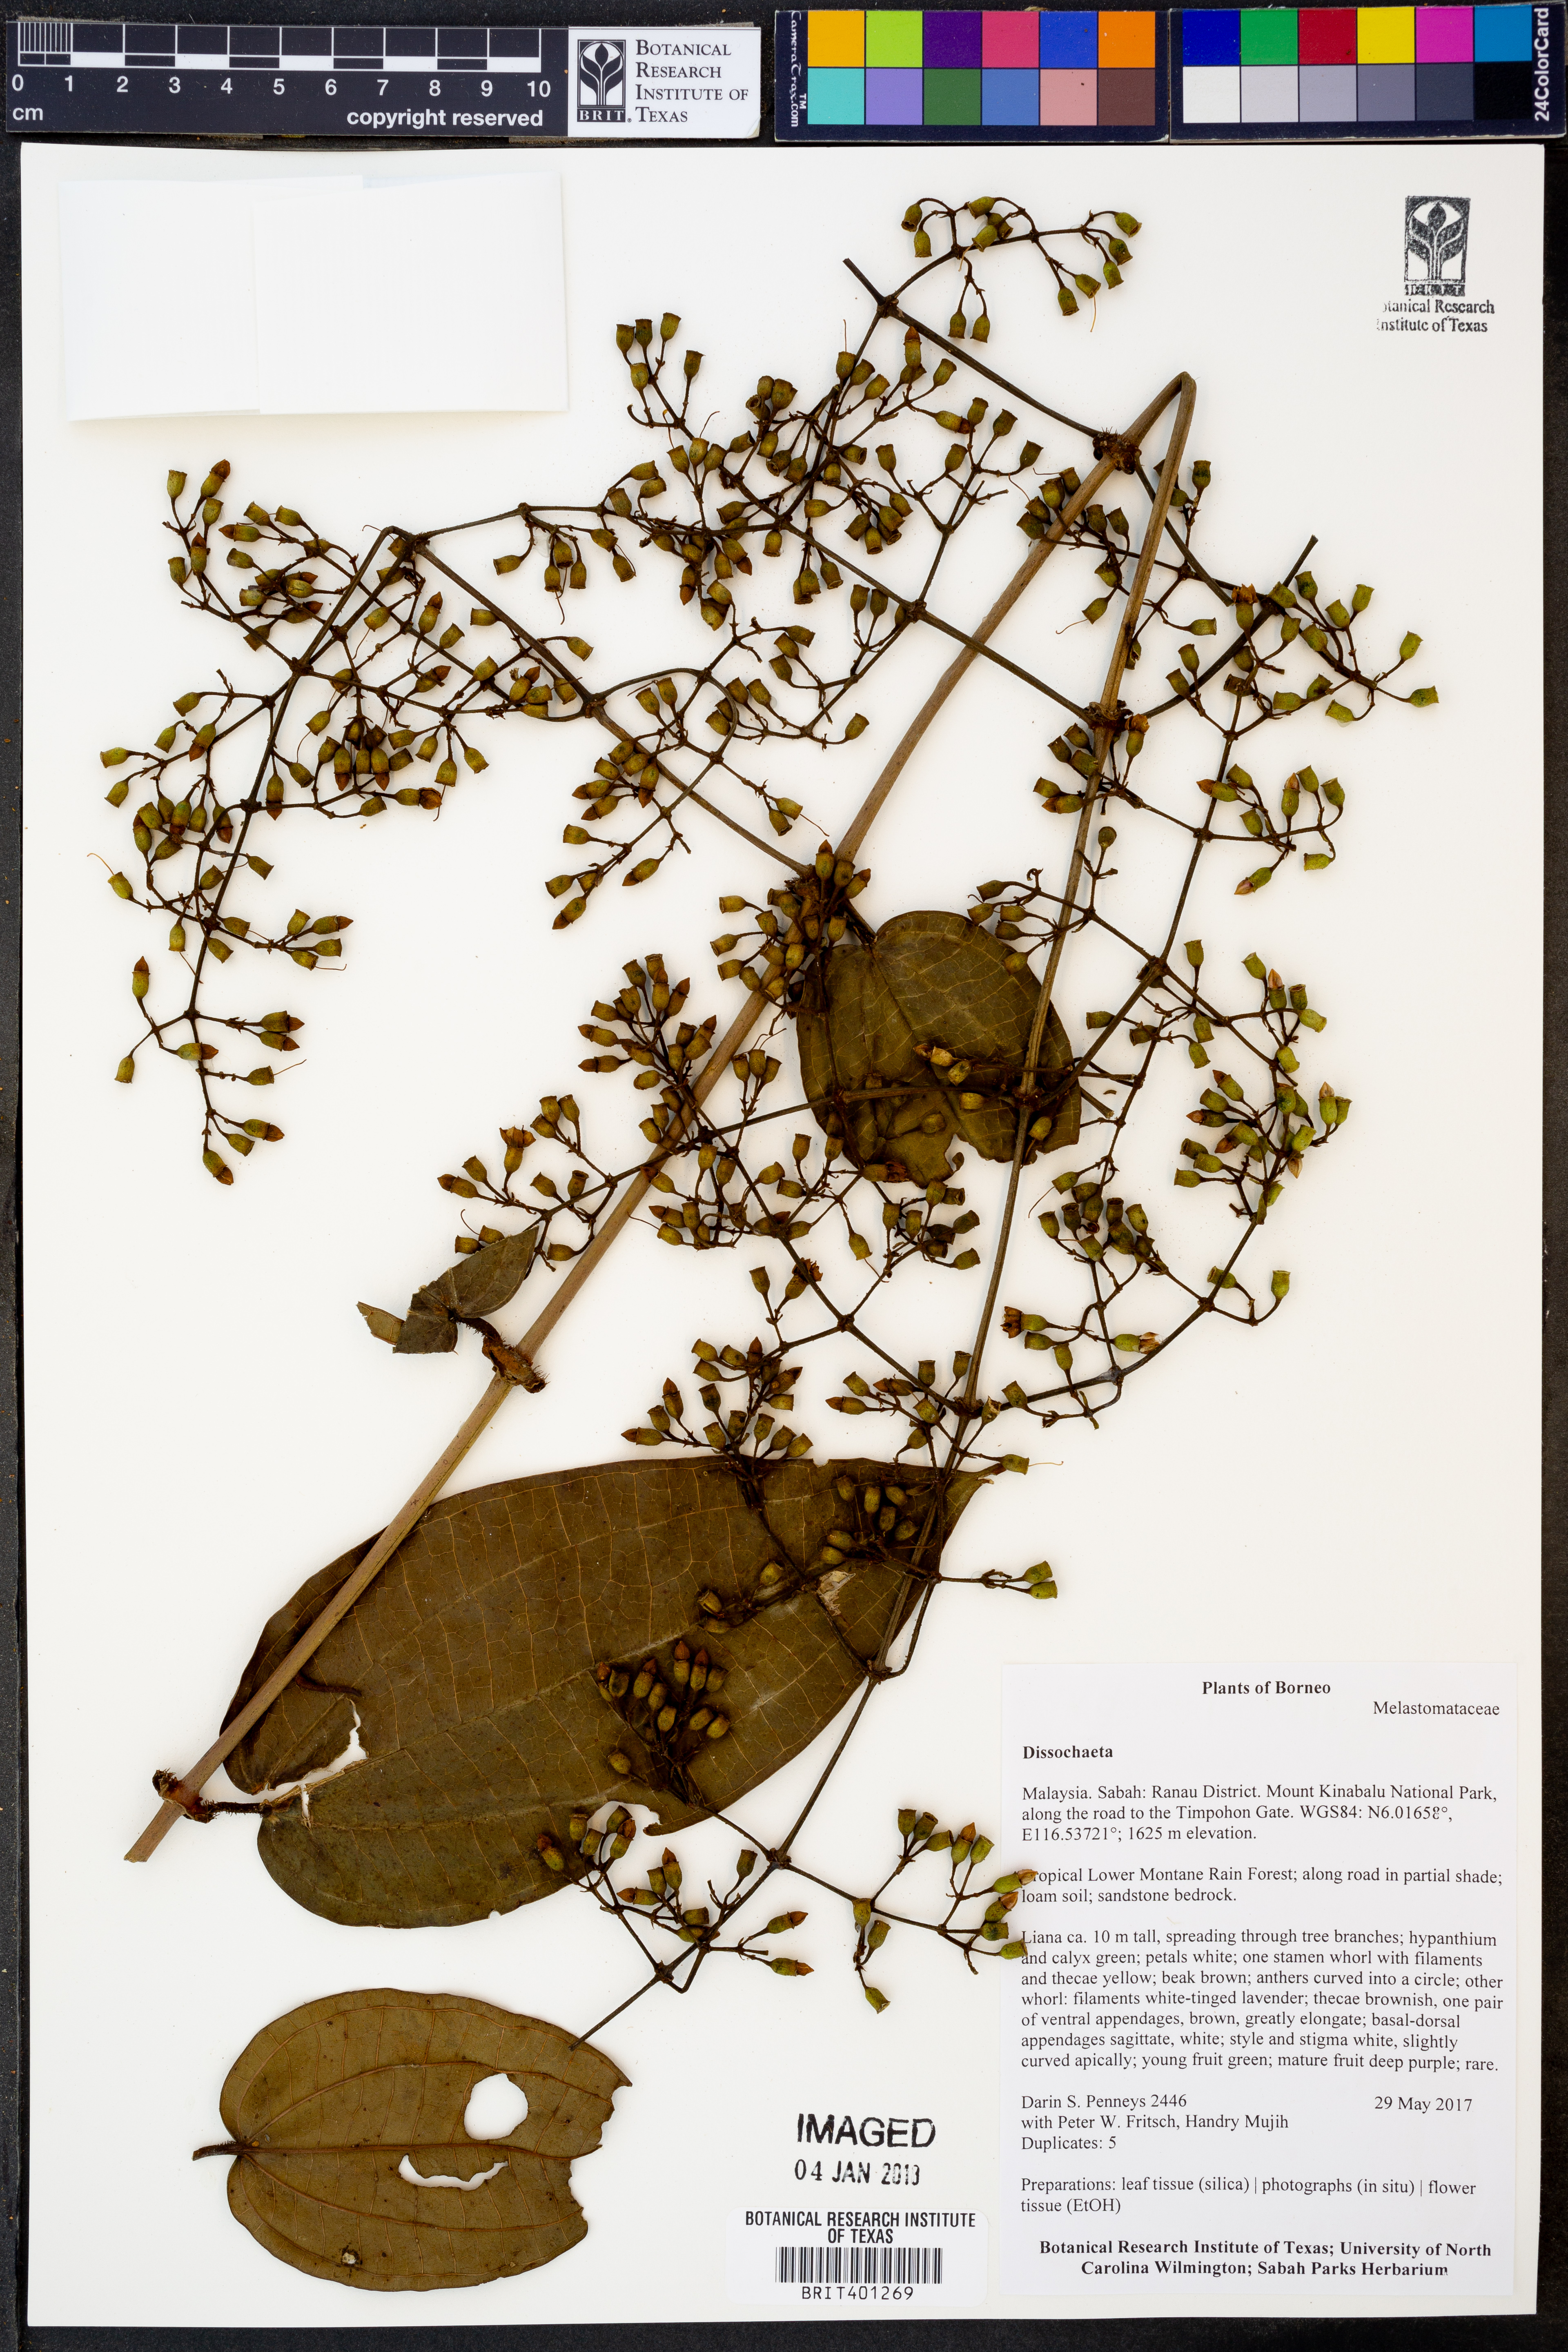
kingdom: Plantae
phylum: Tracheophyta
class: Magnoliopsida
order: Myrtales
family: Melastomataceae
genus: Dissochaeta
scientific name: Dissochaeta
